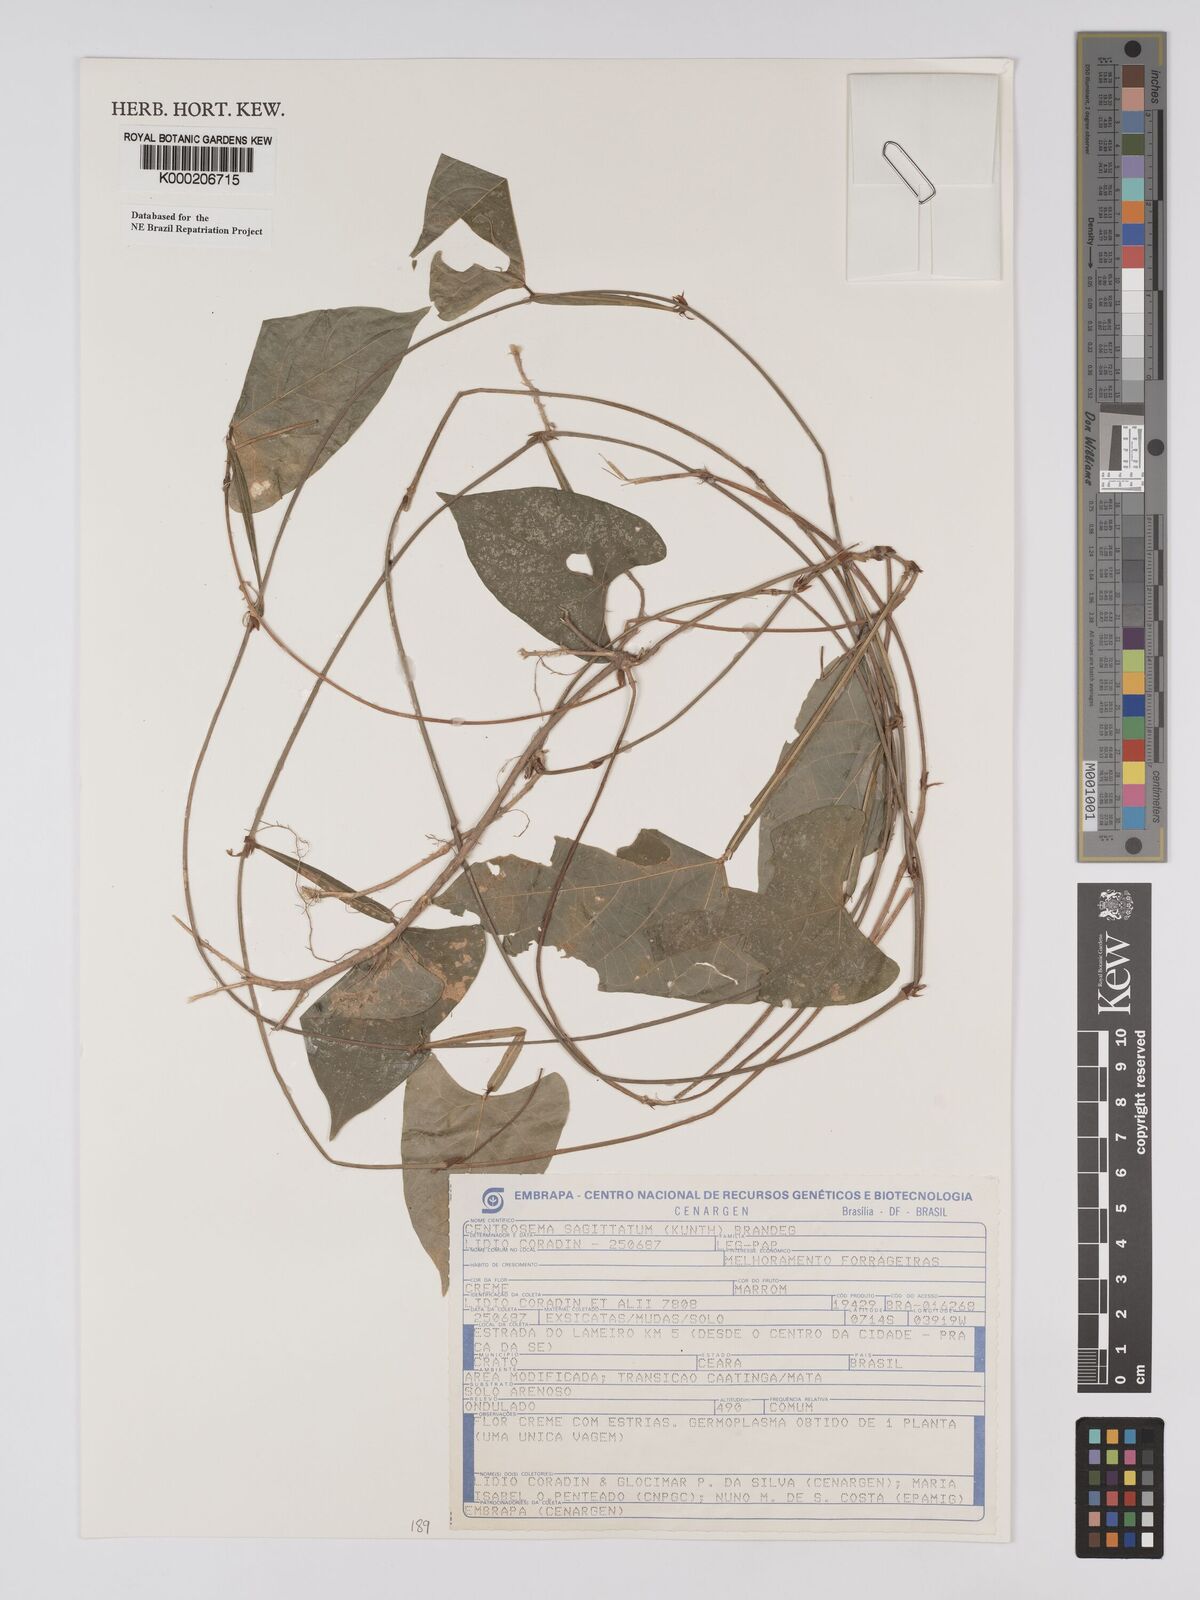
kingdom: Plantae
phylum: Tracheophyta
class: Magnoliopsida
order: Fabales
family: Fabaceae
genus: Centrosema
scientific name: Centrosema sagittatum
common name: Arrowleaf butterfly pea
